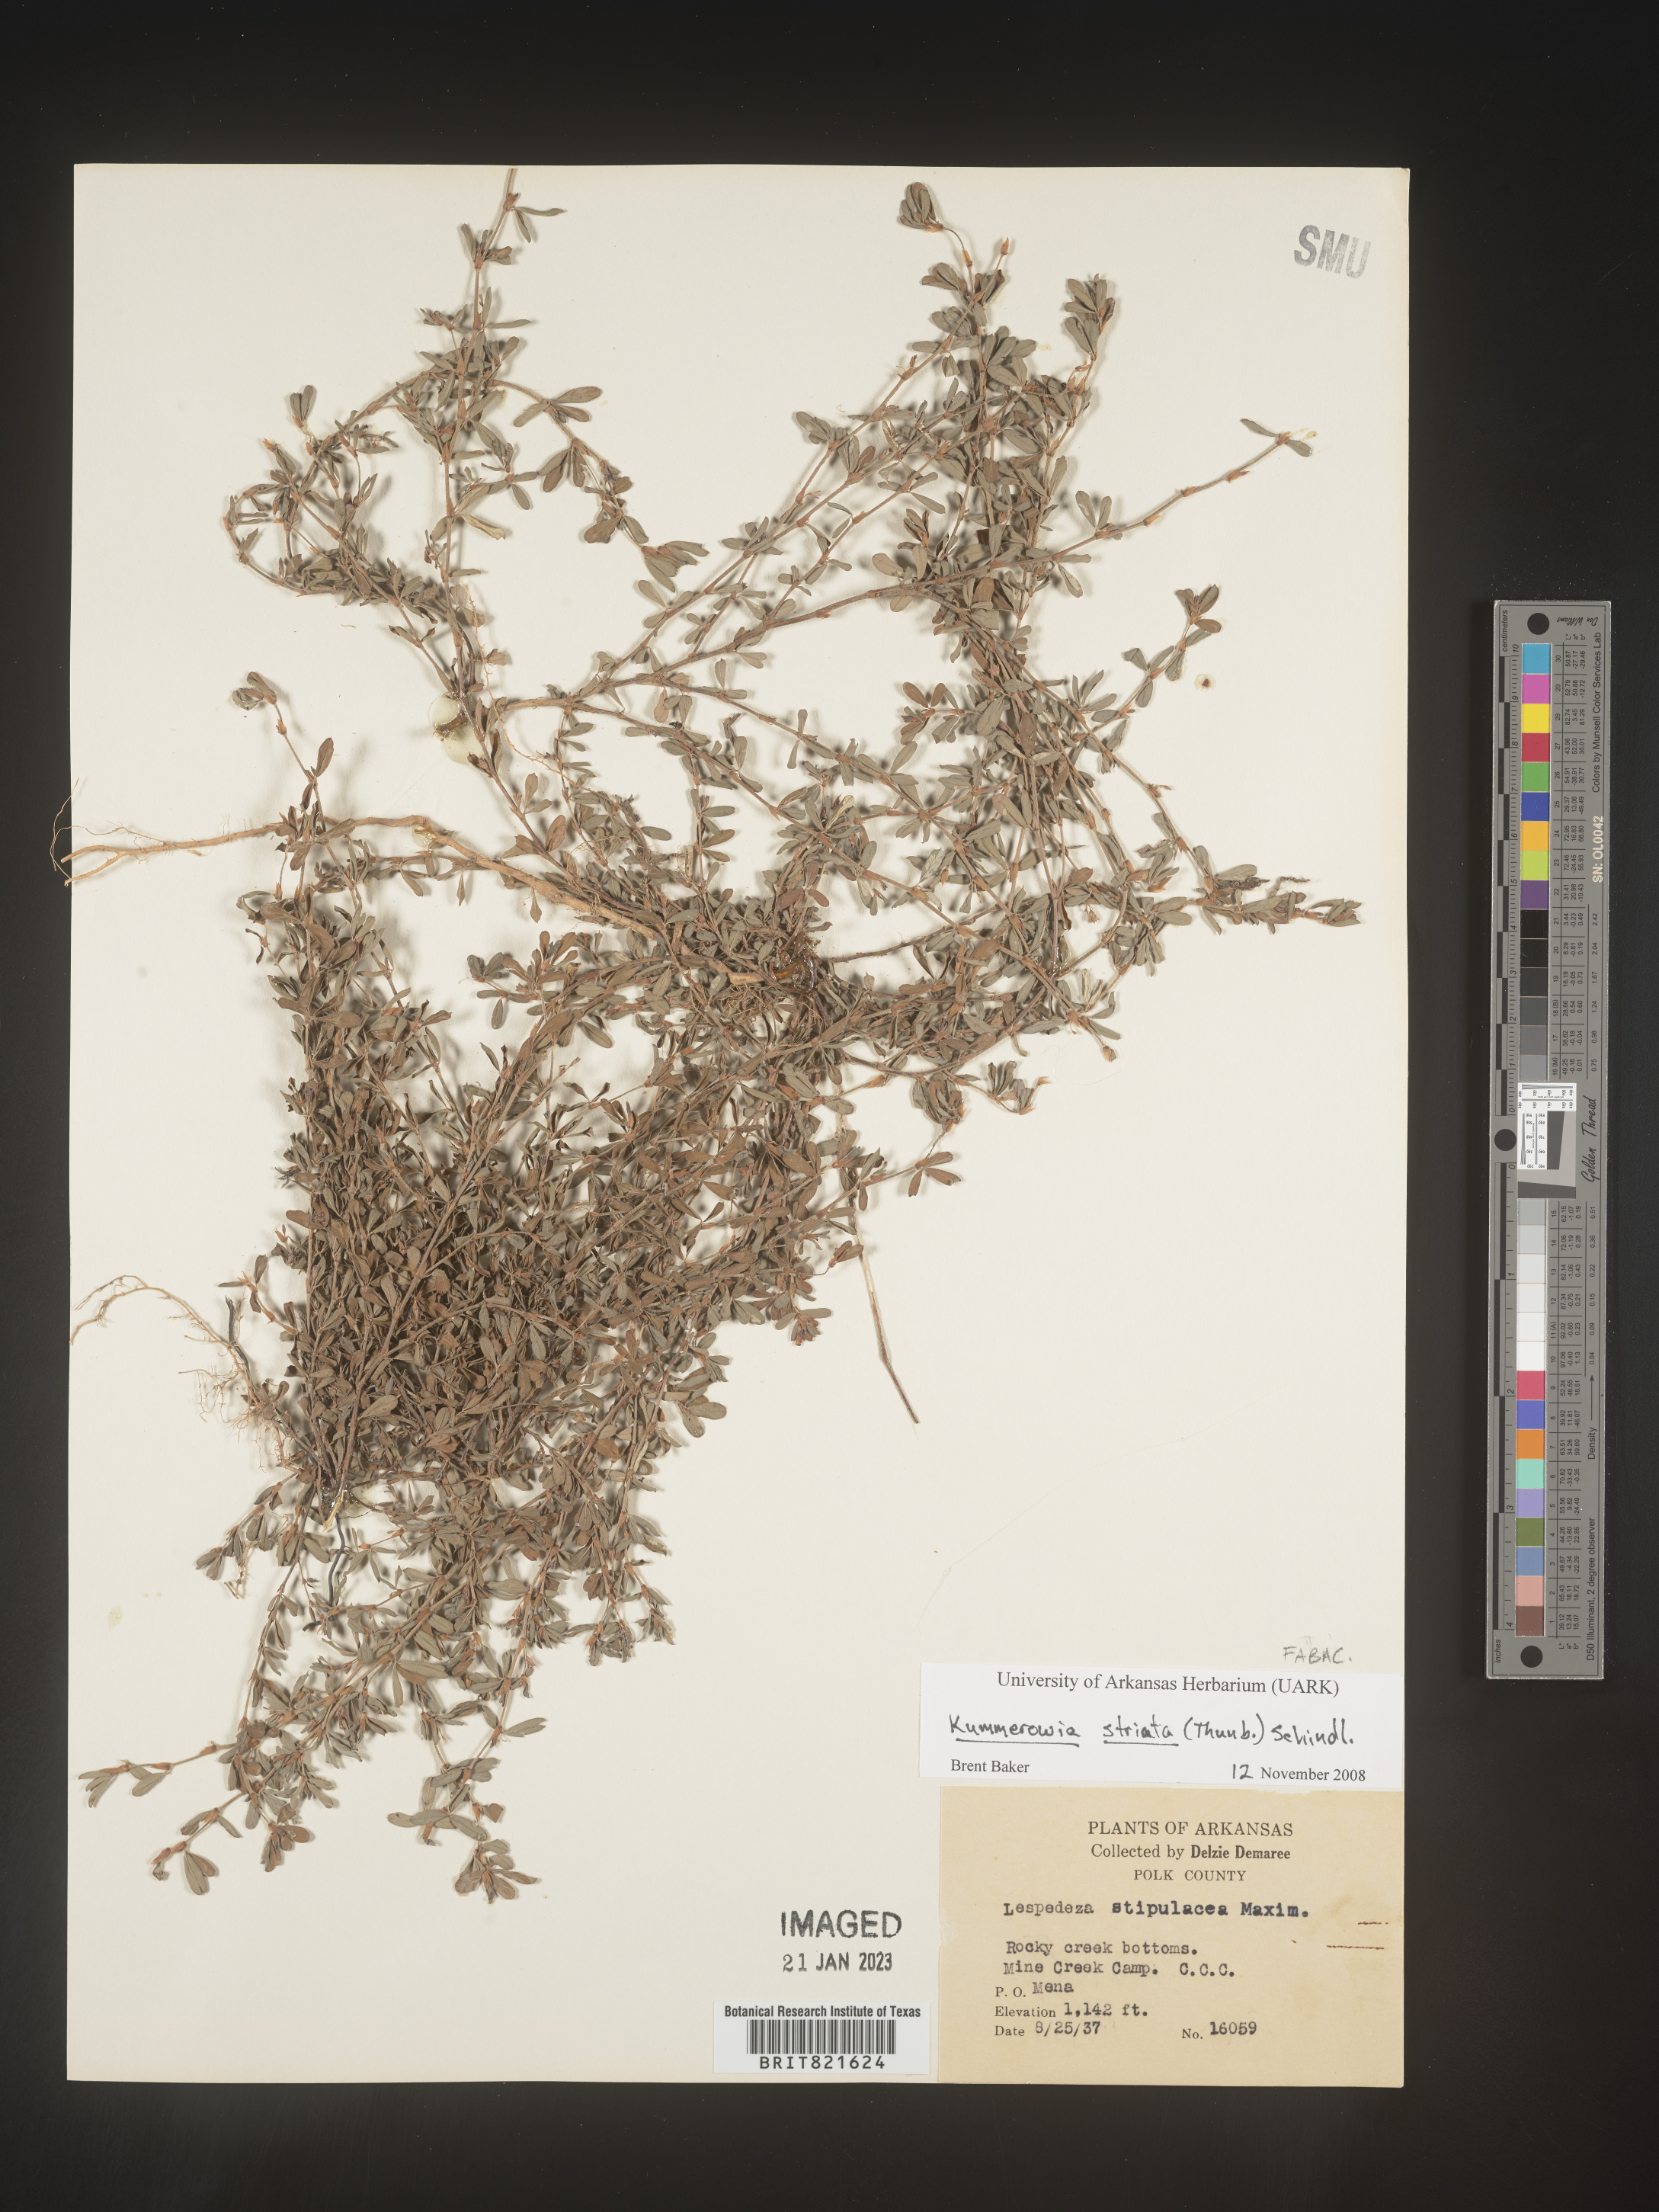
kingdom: Plantae
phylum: Tracheophyta
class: Magnoliopsida
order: Fabales
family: Fabaceae
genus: Kummerowia
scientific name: Kummerowia
